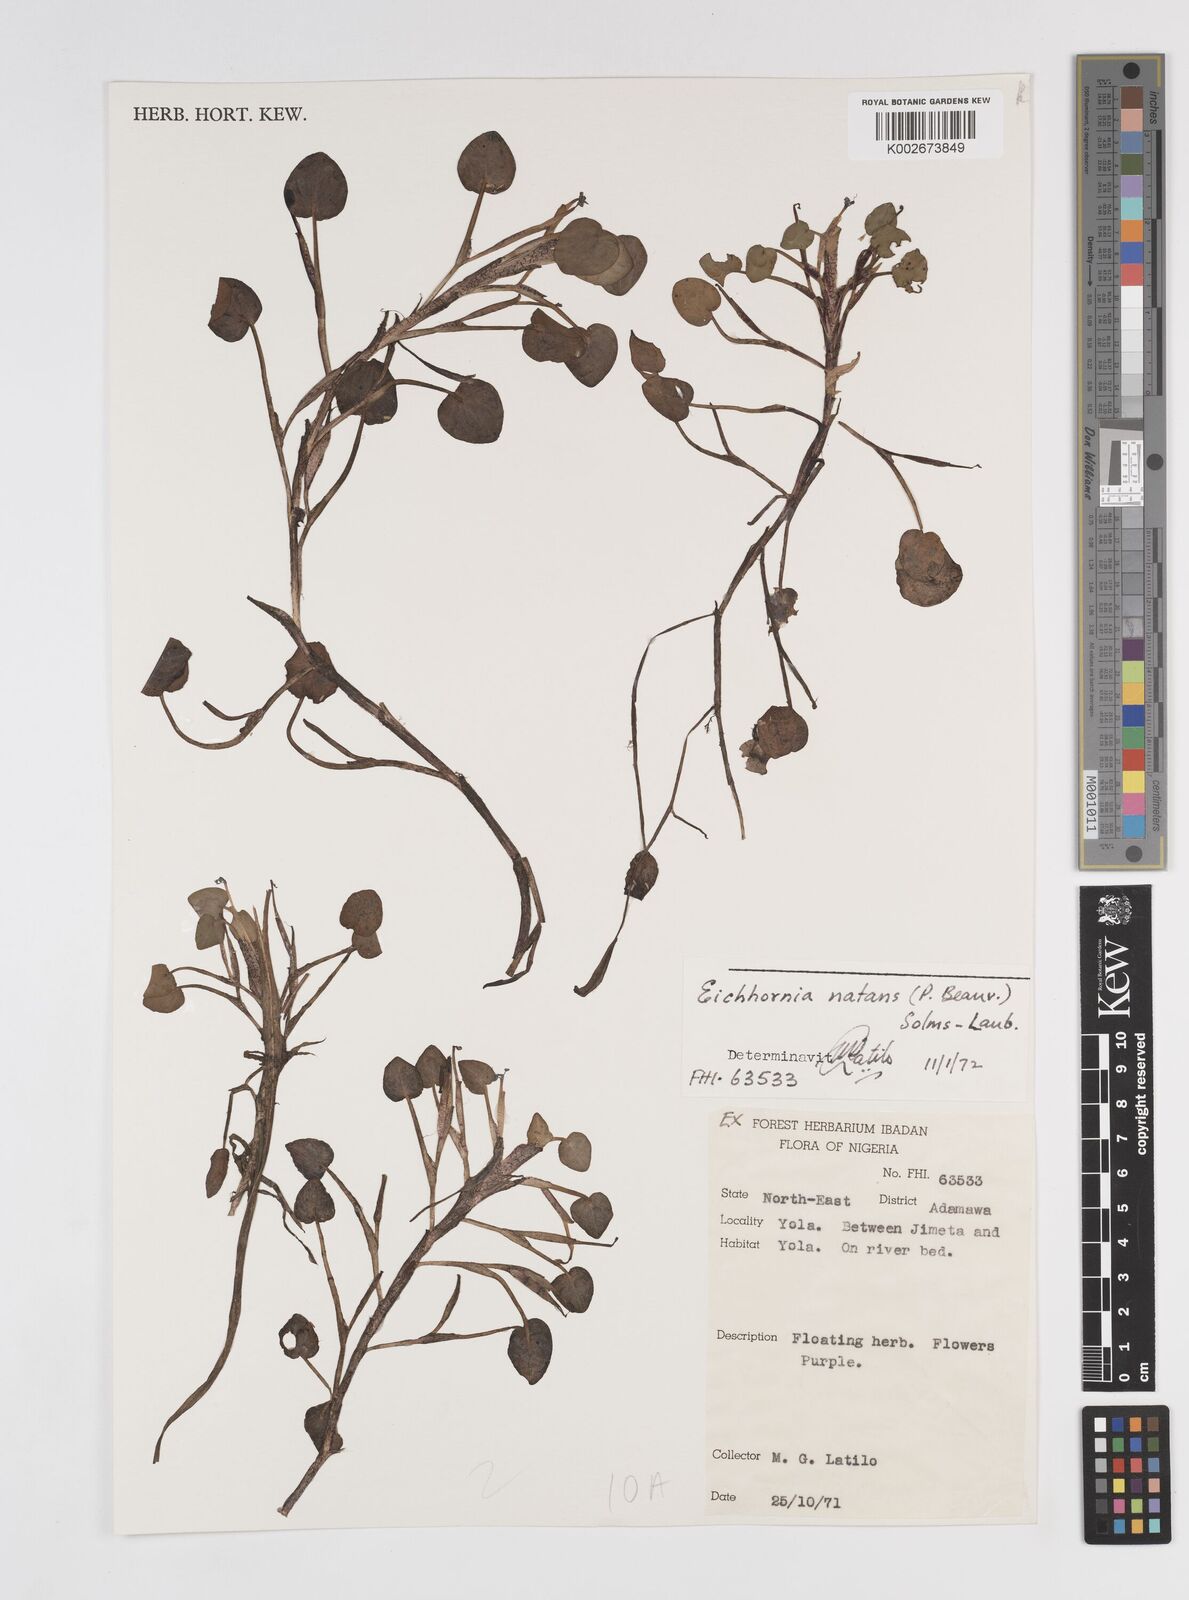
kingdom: Plantae
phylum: Tracheophyta
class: Liliopsida
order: Commelinales
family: Pontederiaceae
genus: Pontederia
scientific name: Pontederia diversifolia
